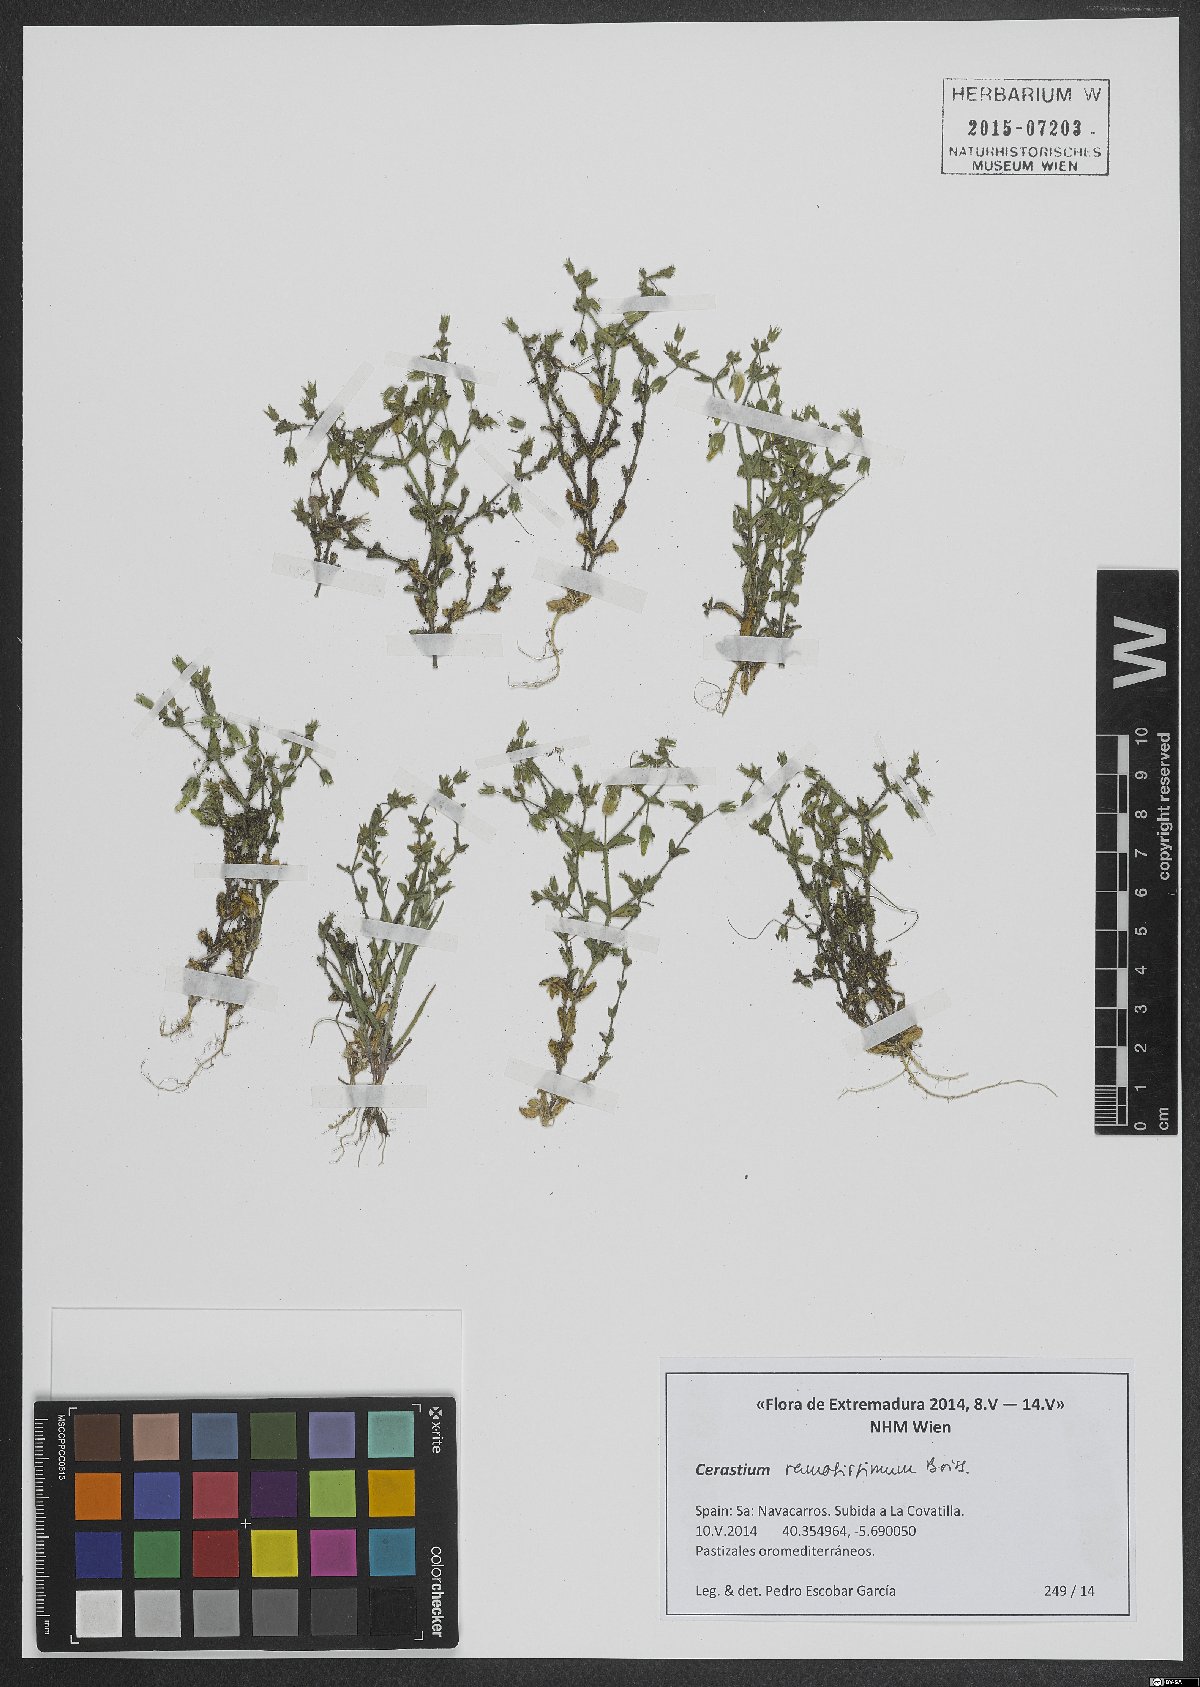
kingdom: Plantae
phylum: Tracheophyta
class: Magnoliopsida
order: Caryophyllales
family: Caryophyllaceae
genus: Cerastium
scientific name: Cerastium ramosissimum
